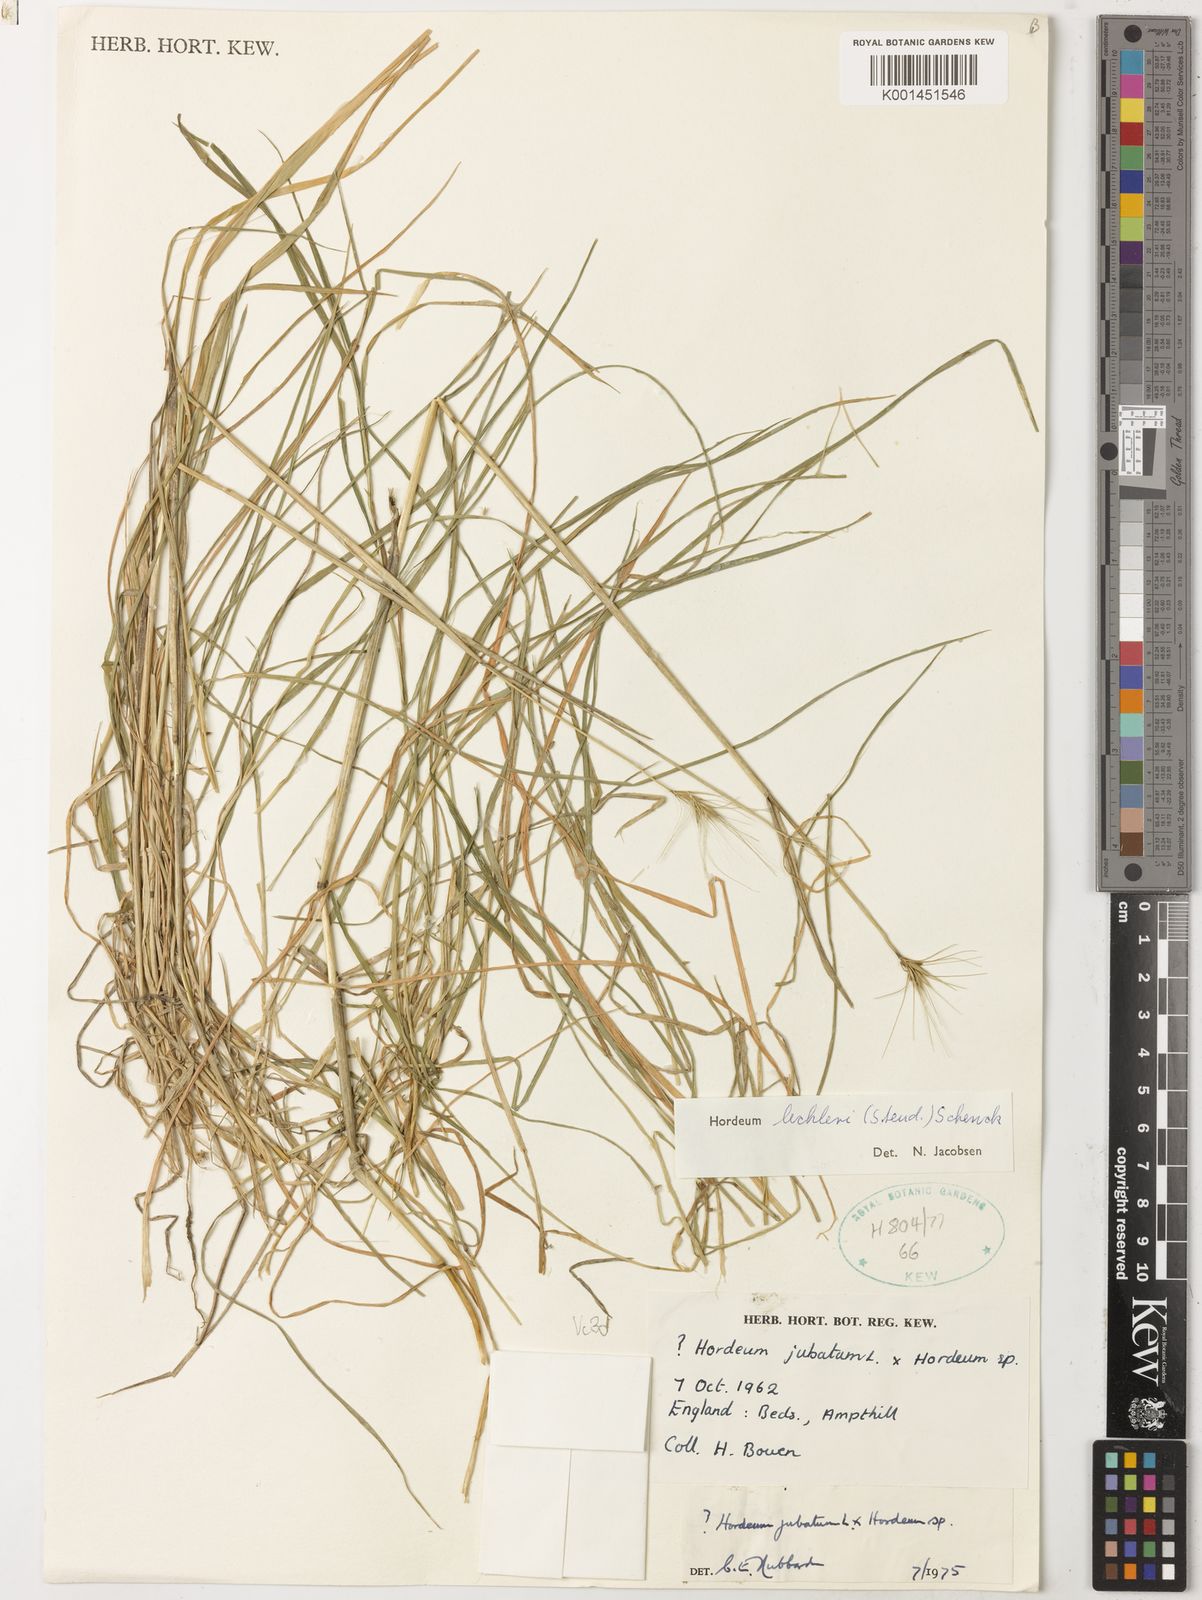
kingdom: Plantae
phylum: Tracheophyta
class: Liliopsida
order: Poales
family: Poaceae
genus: Hordeum
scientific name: Hordeum lechleri
